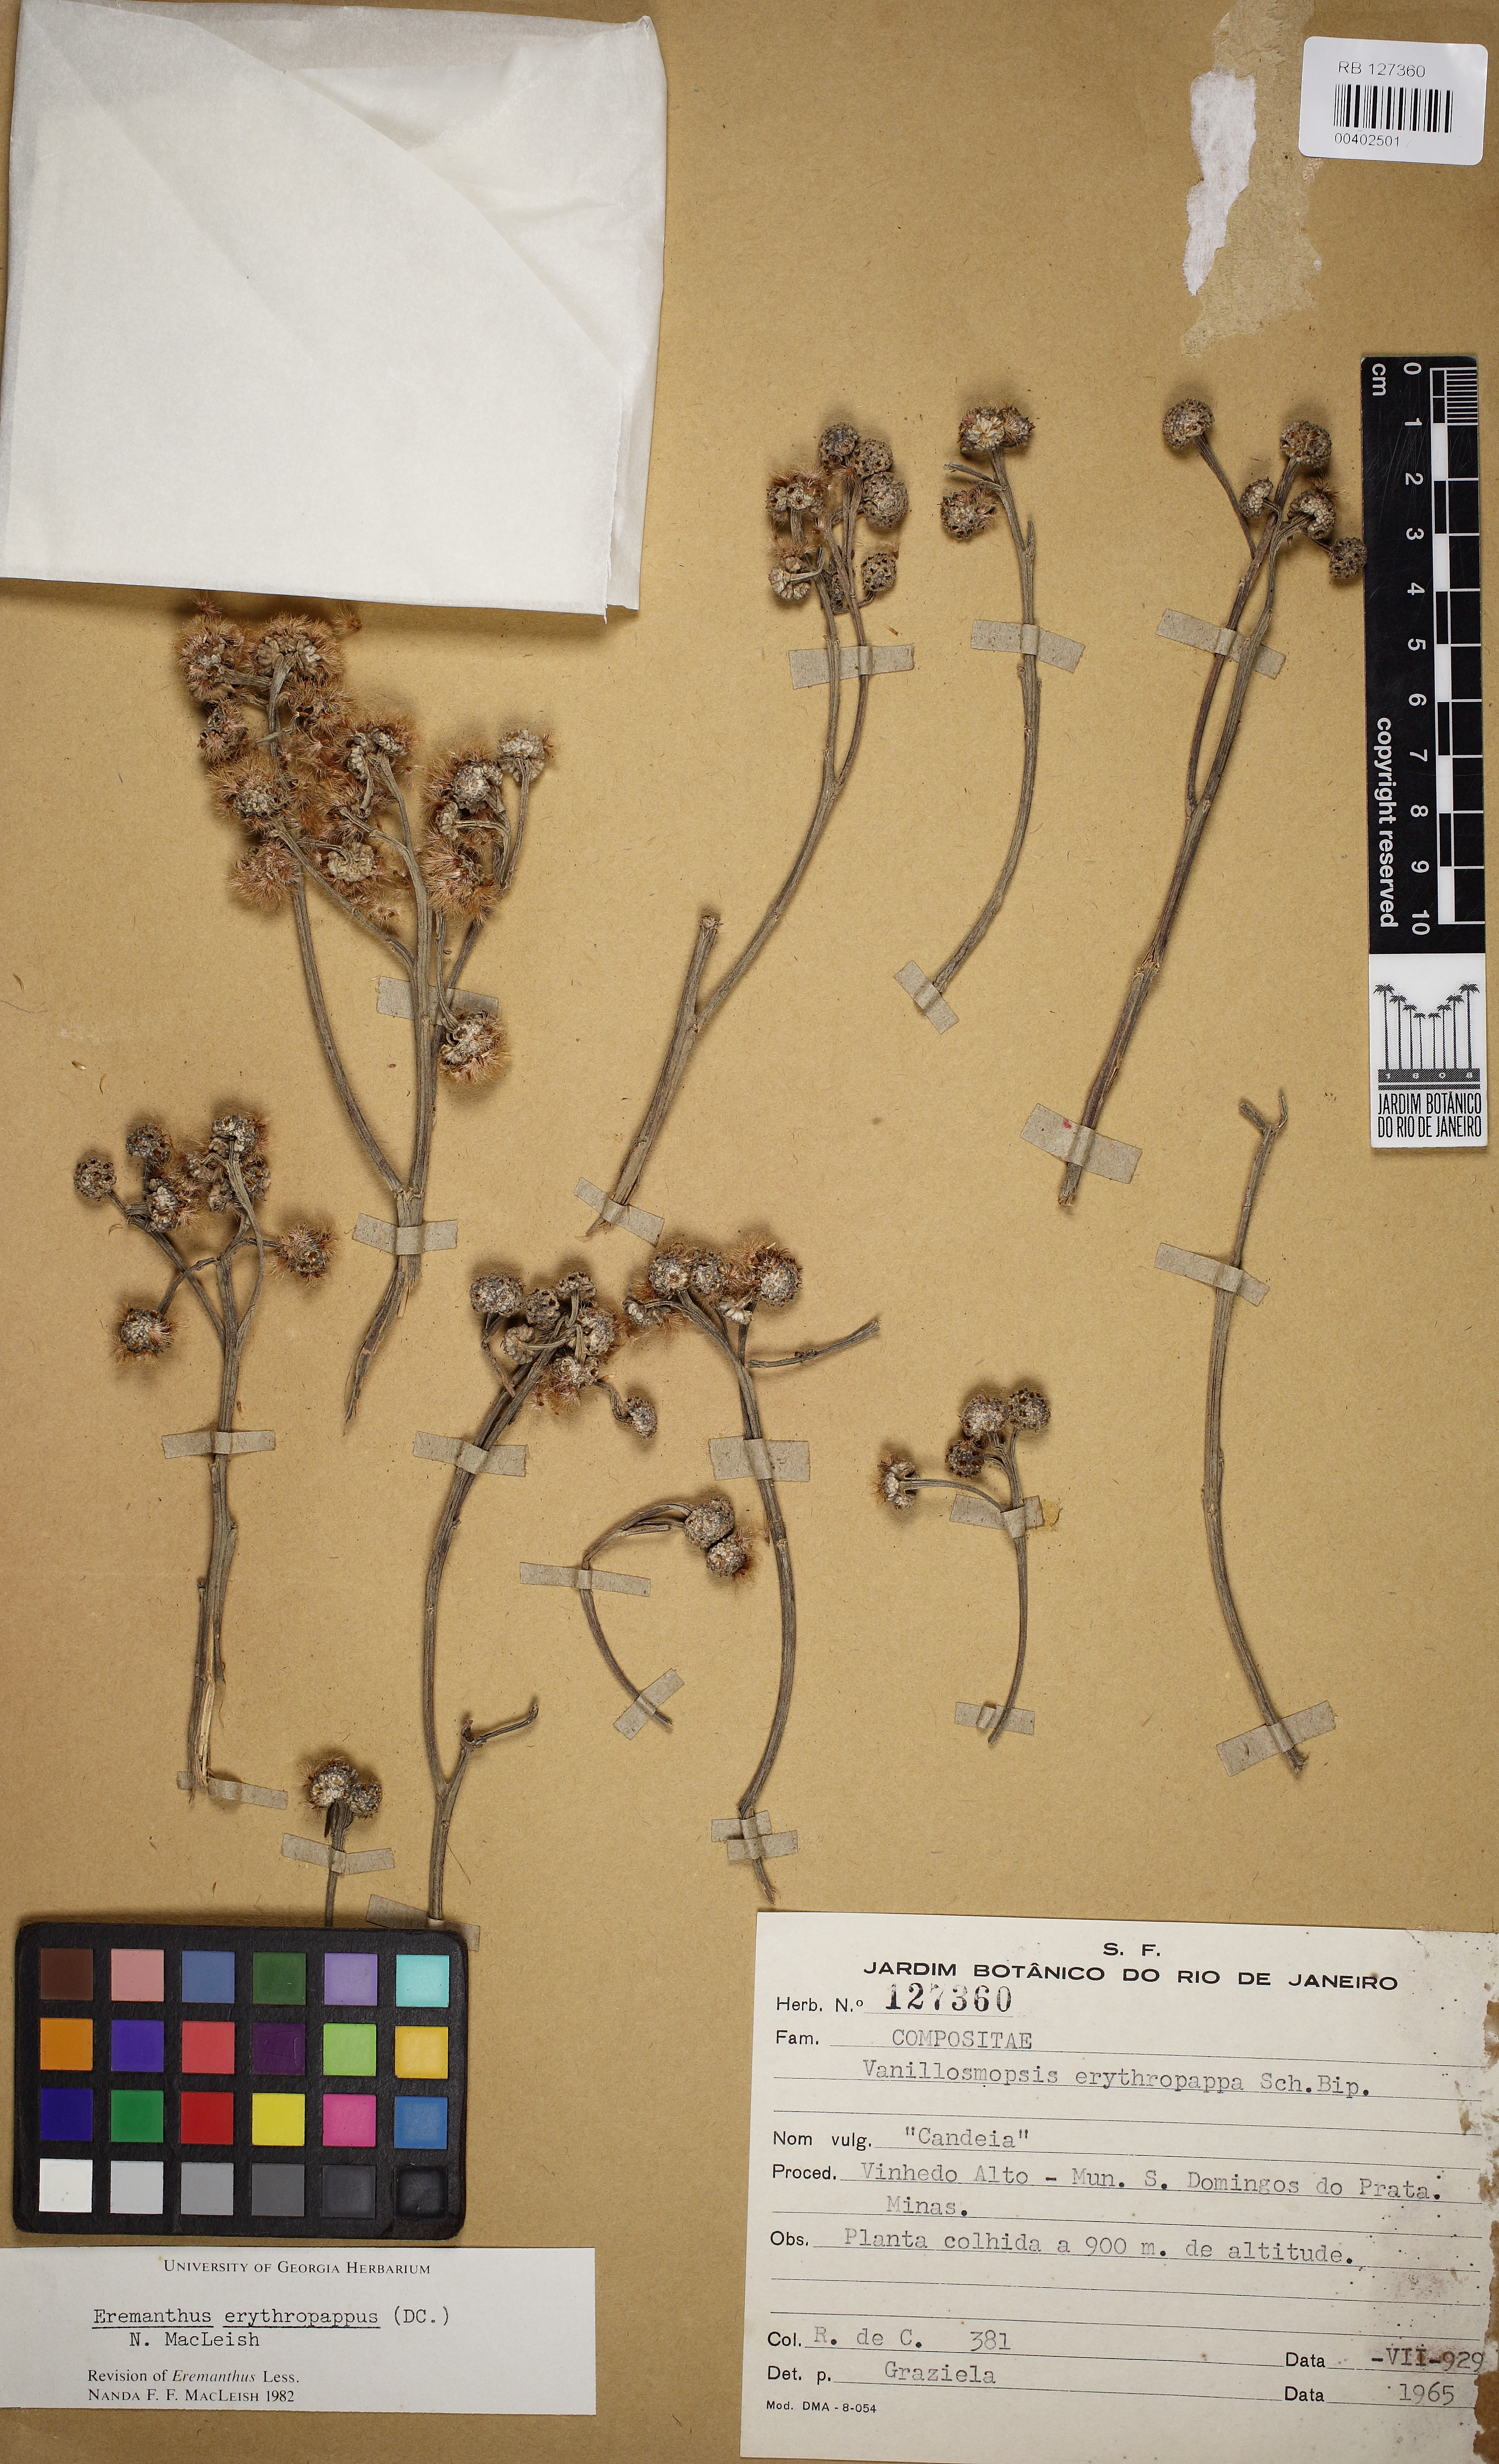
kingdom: Plantae
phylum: Tracheophyta
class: Magnoliopsida
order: Asterales
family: Asteraceae
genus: Eremanthus
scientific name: Eremanthus erythropappus
